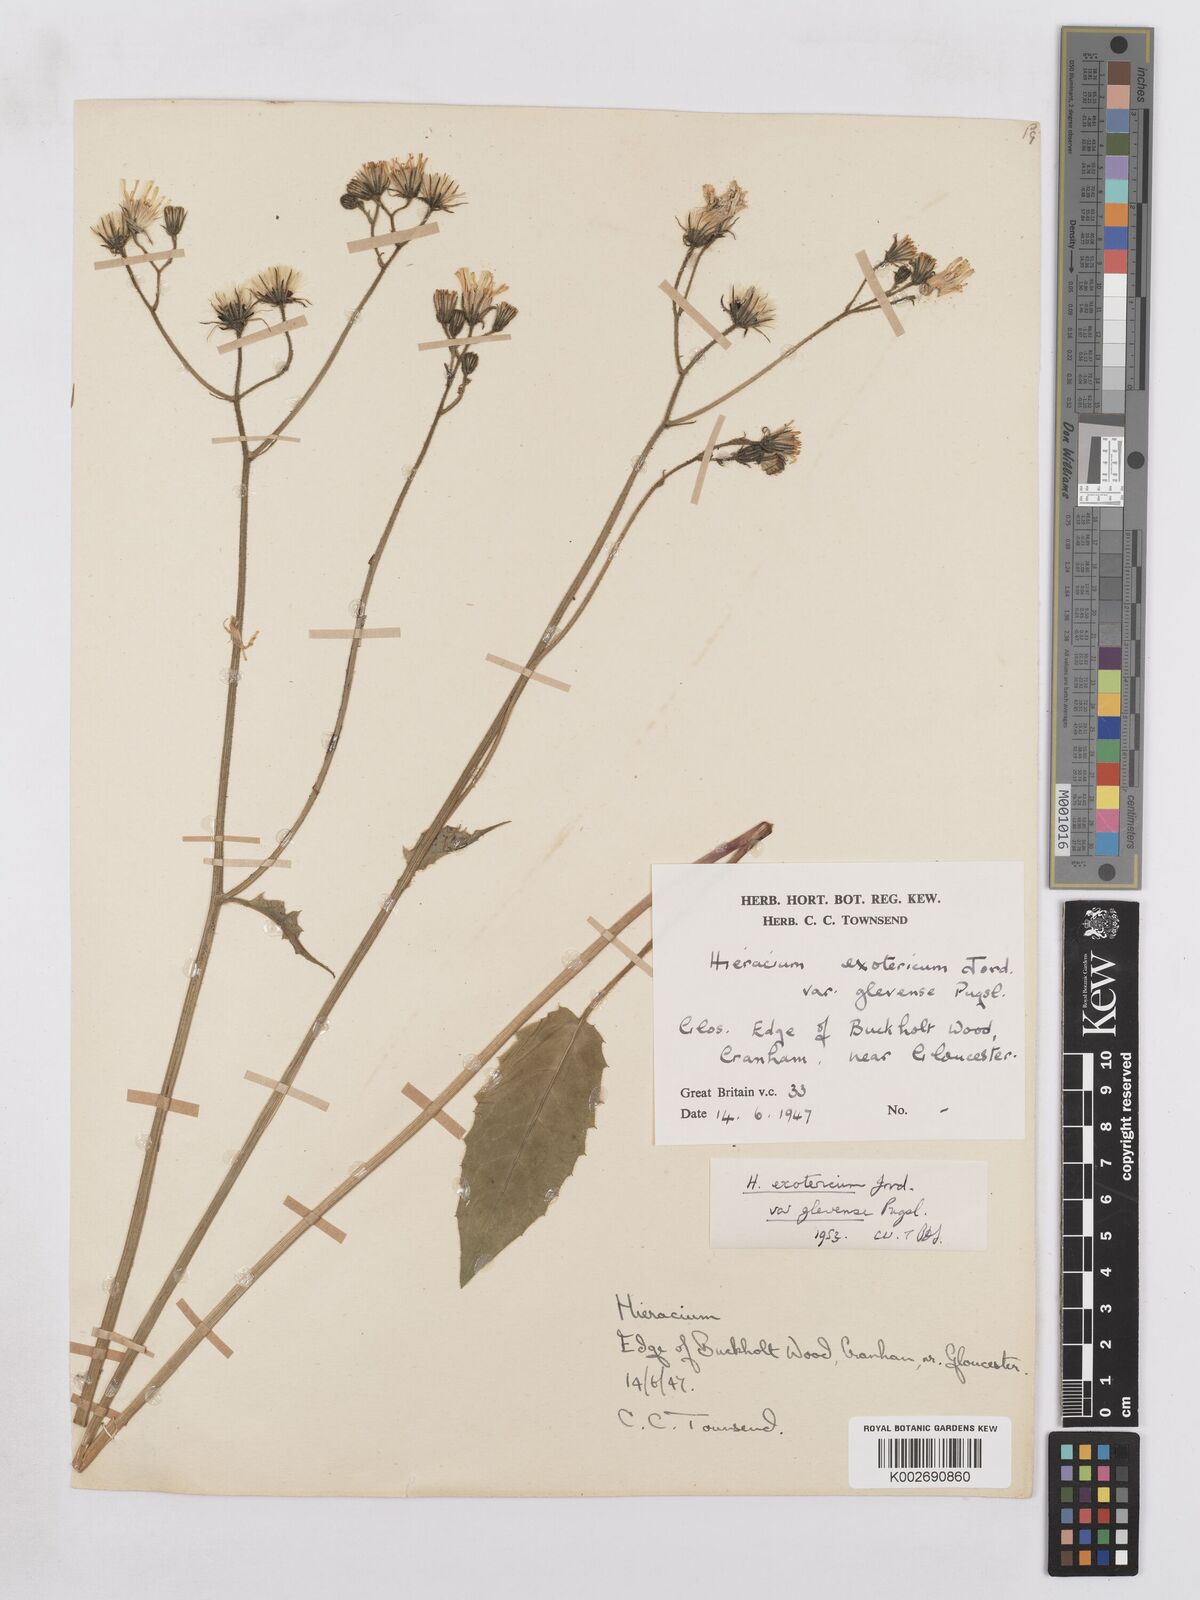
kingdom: Plantae
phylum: Tracheophyta
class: Magnoliopsida
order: Asterales
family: Asteraceae
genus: Hieracium
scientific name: Hieracium glevense
